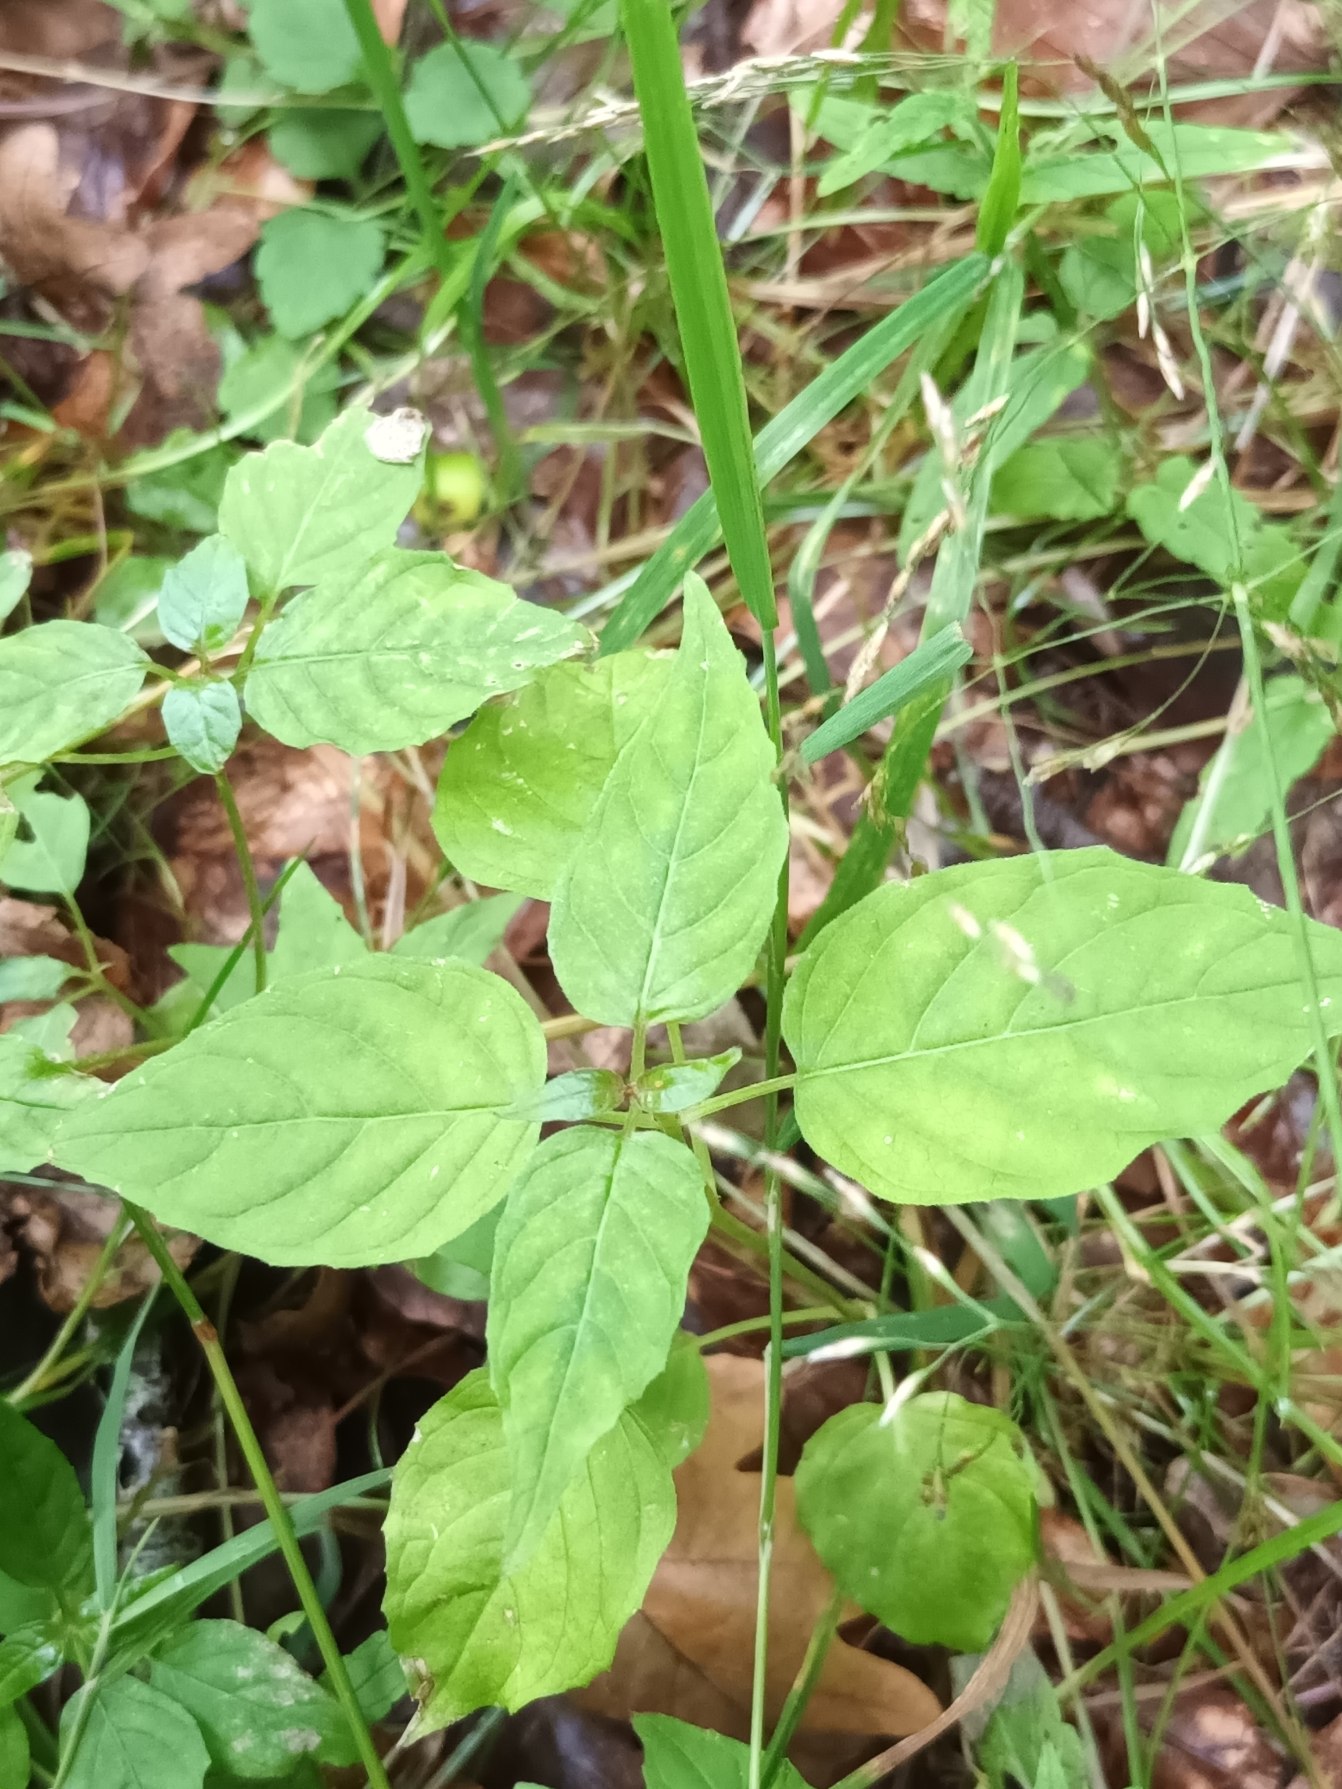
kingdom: Plantae
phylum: Tracheophyta
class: Magnoliopsida
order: Myrtales
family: Onagraceae
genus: Circaea
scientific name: Circaea lutetiana
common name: Dunet steffensurt
